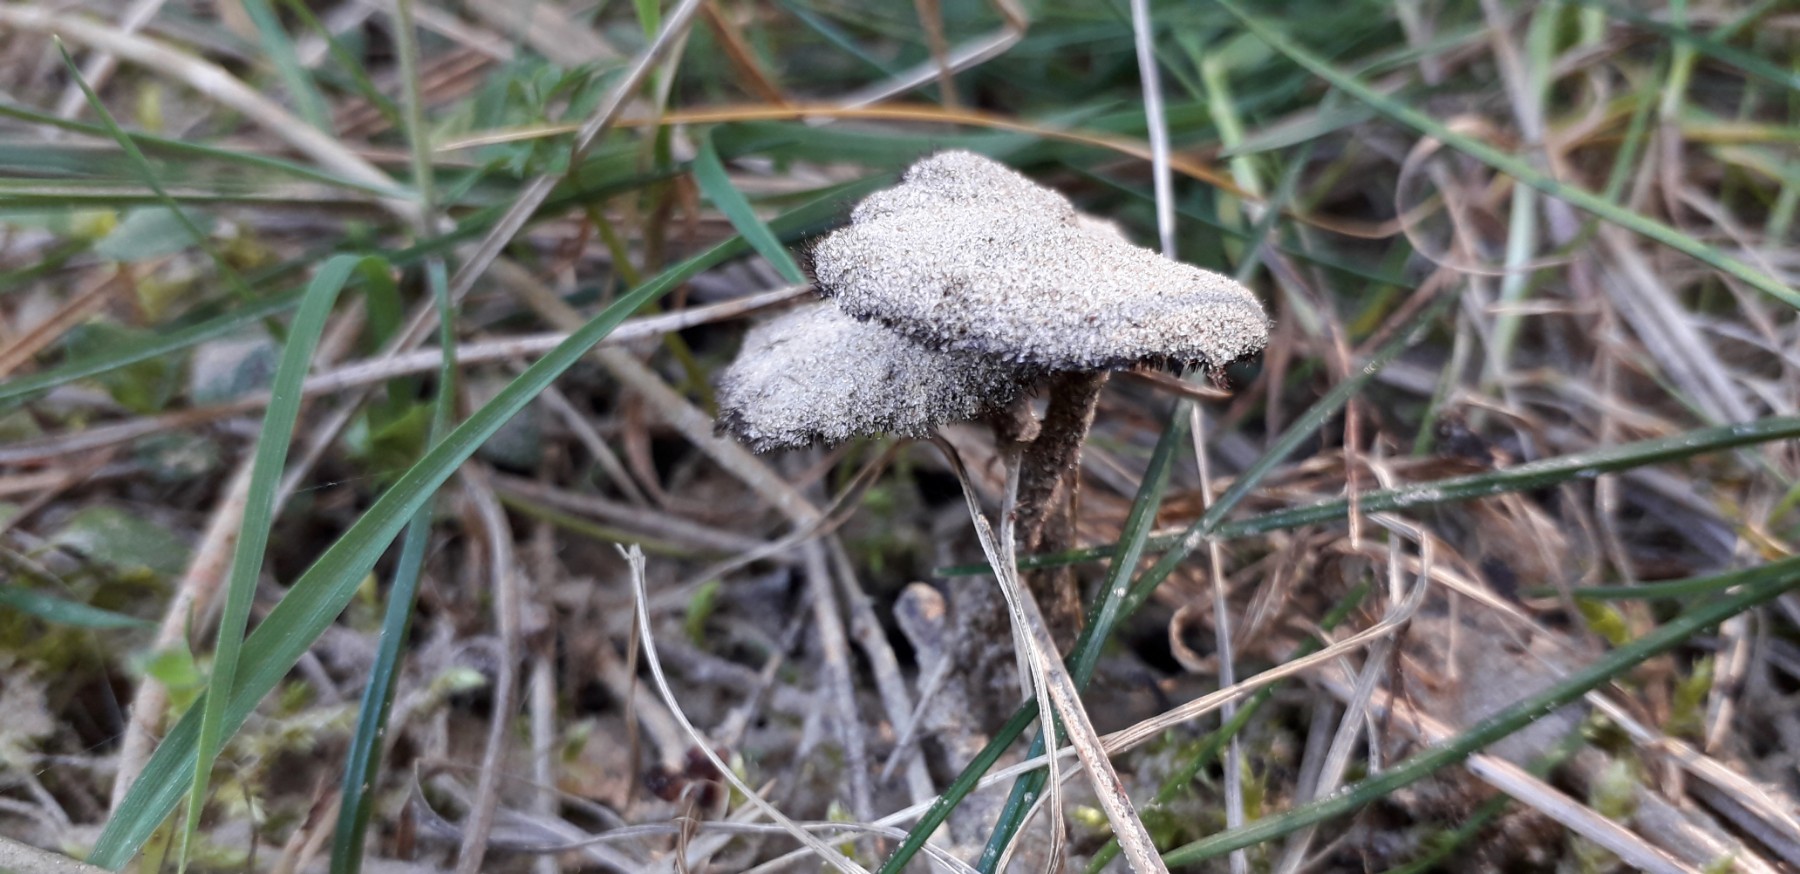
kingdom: Fungi
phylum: Basidiomycota
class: Agaricomycetes
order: Russulales
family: Auriscalpiaceae
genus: Auriscalpium
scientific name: Auriscalpium vulgare
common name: koglepigsvamp
